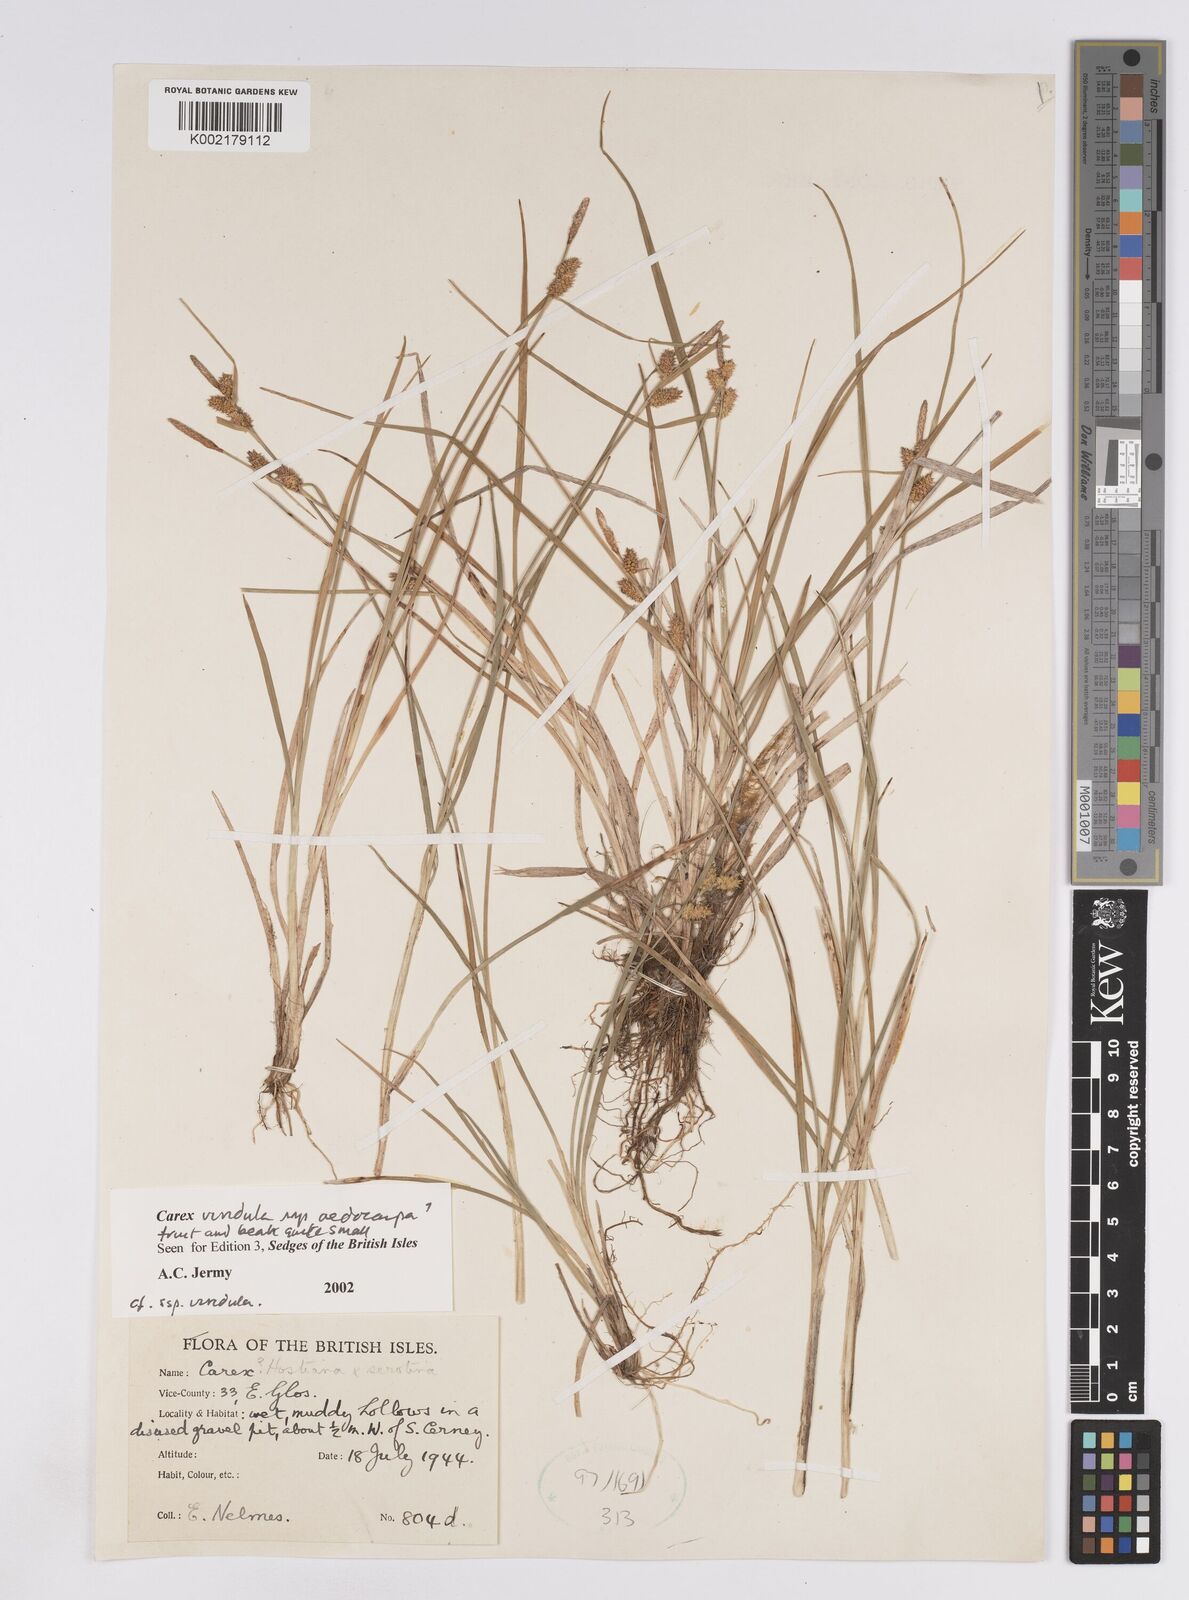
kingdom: Plantae
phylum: Tracheophyta
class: Liliopsida
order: Poales
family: Cyperaceae
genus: Carex
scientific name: Carex demissa
